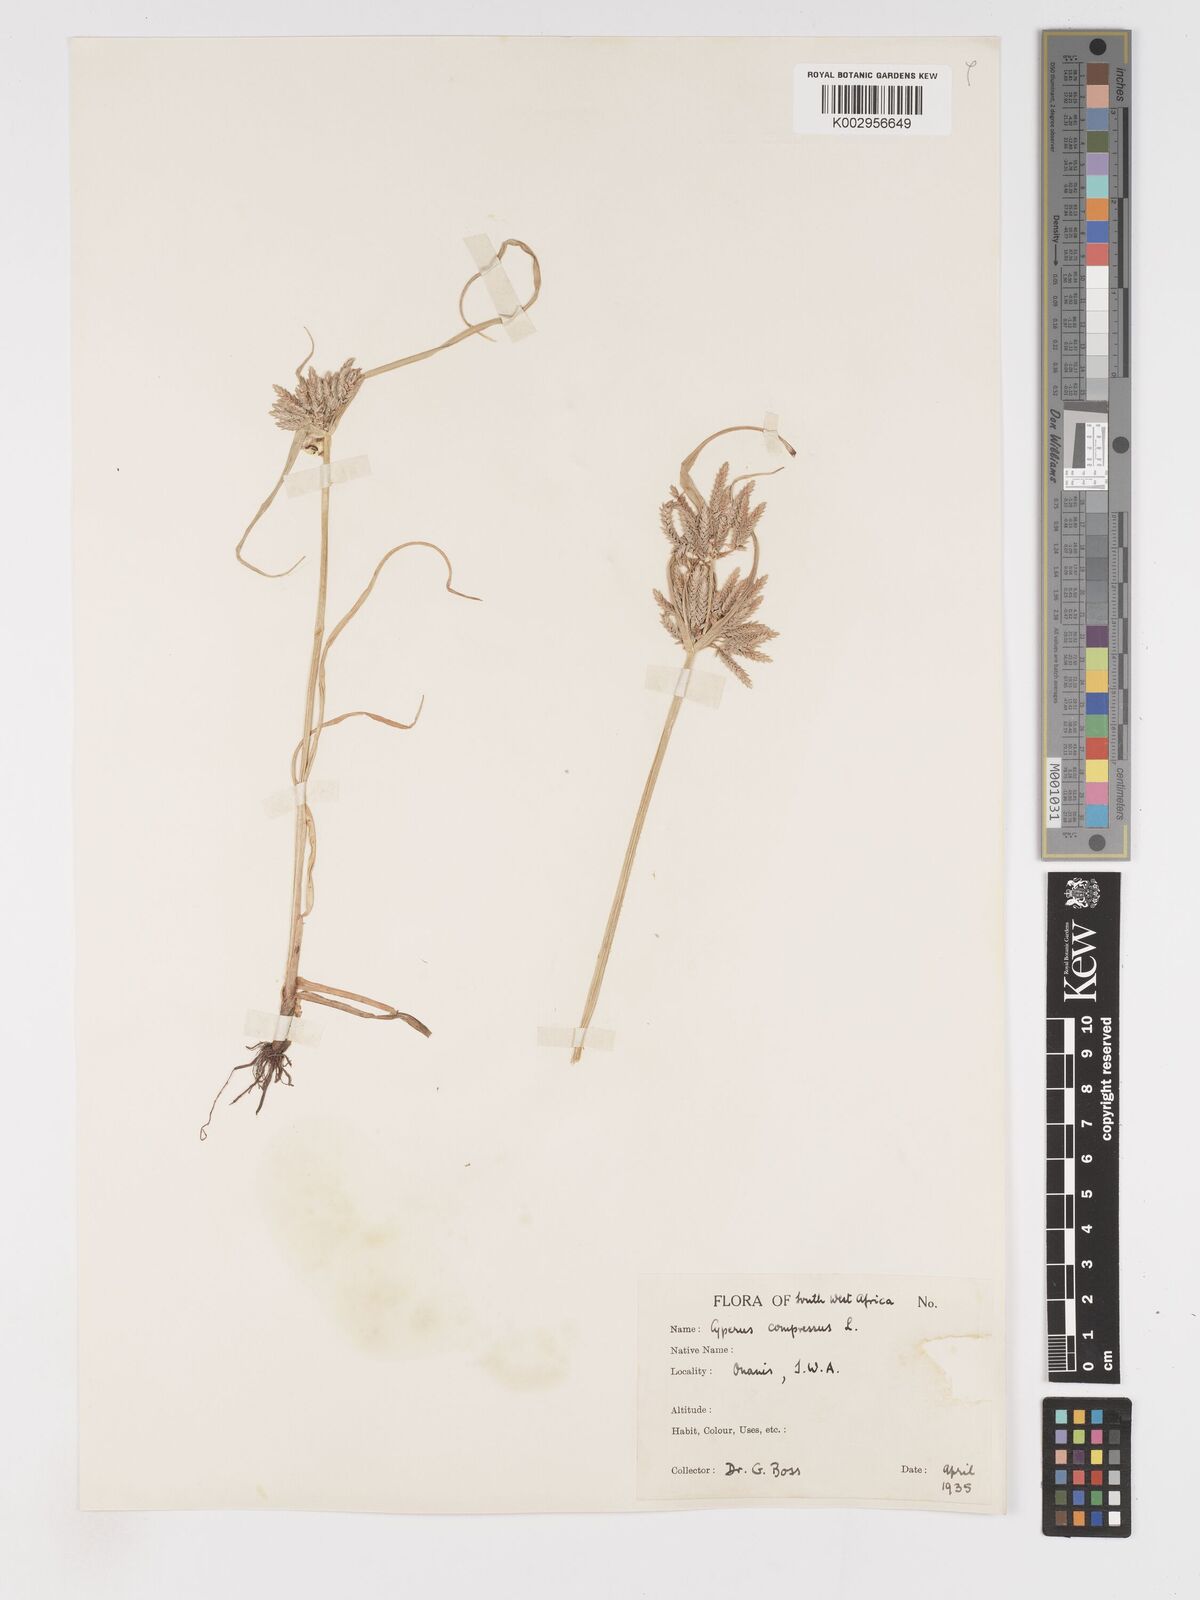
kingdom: Plantae
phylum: Tracheophyta
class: Liliopsida
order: Poales
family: Cyperaceae
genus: Cyperus
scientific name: Cyperus compressus
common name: Poorland flatsedge
